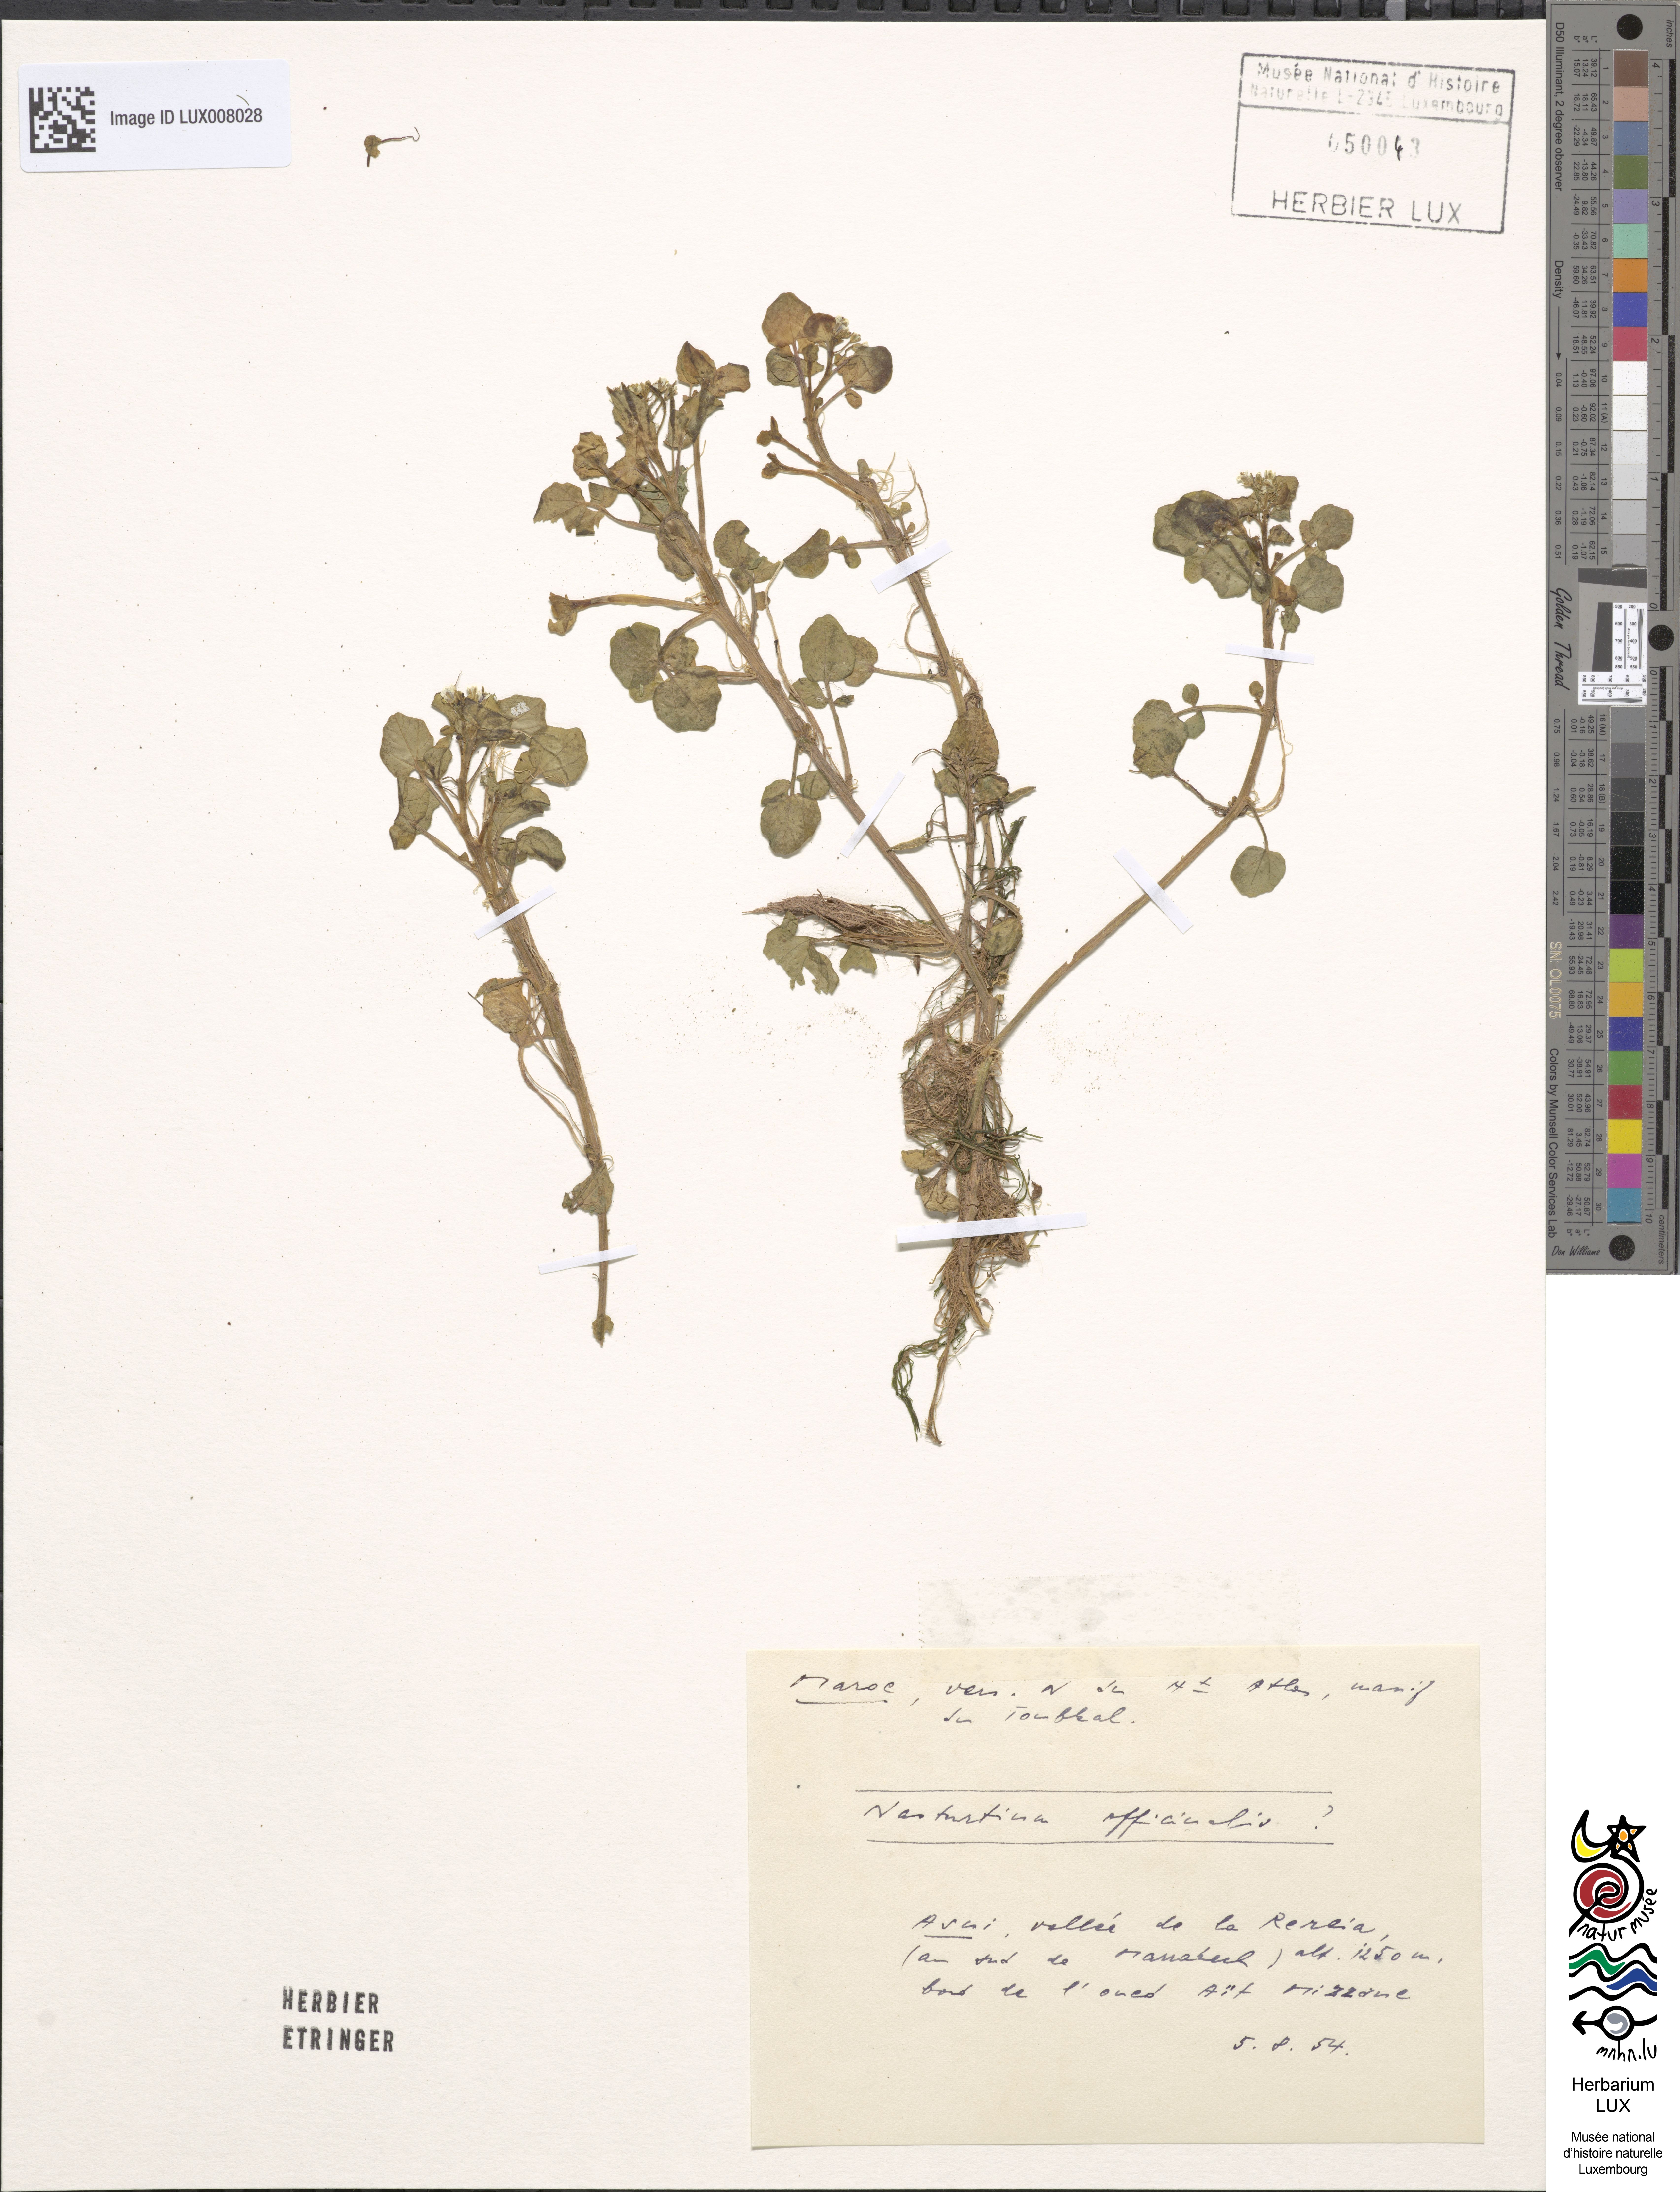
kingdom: Plantae
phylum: Tracheophyta
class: Magnoliopsida
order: Brassicales
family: Brassicaceae
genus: Nasturtium
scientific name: Nasturtium officinale
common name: Watercress
